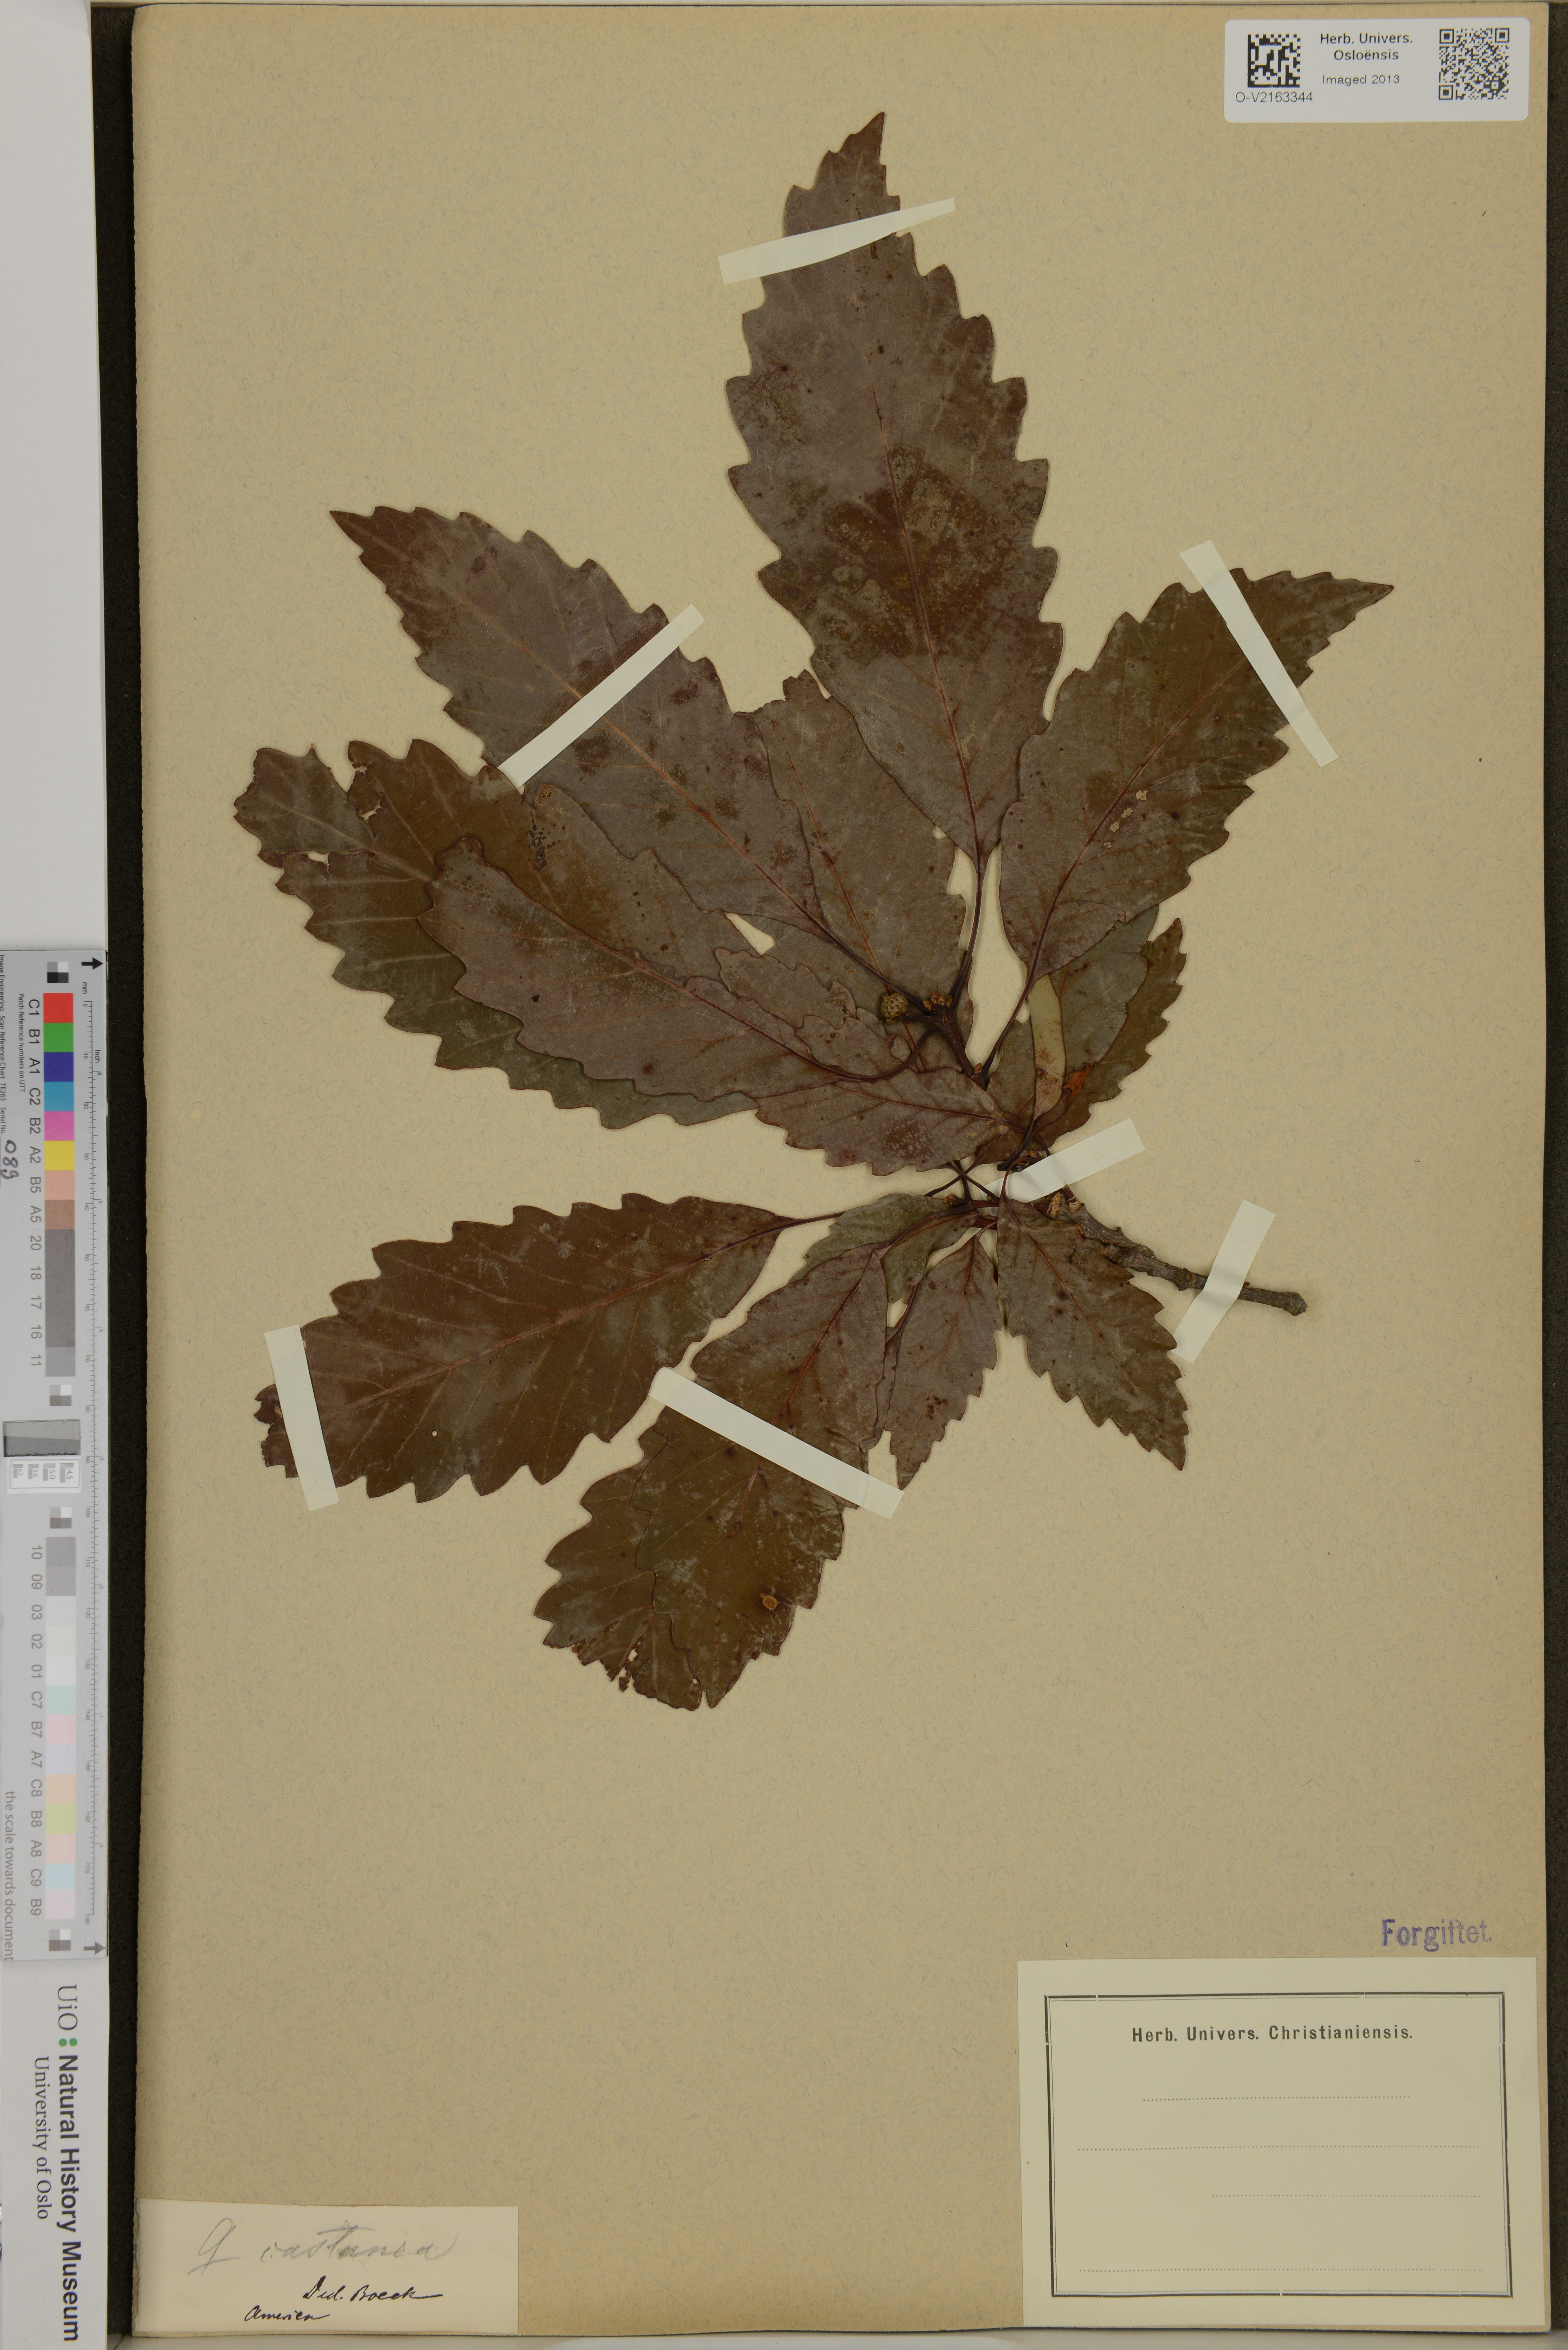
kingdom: Plantae
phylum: Tracheophyta
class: Magnoliopsida
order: Fagales
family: Fagaceae
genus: Quercus
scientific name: Quercus castanea
